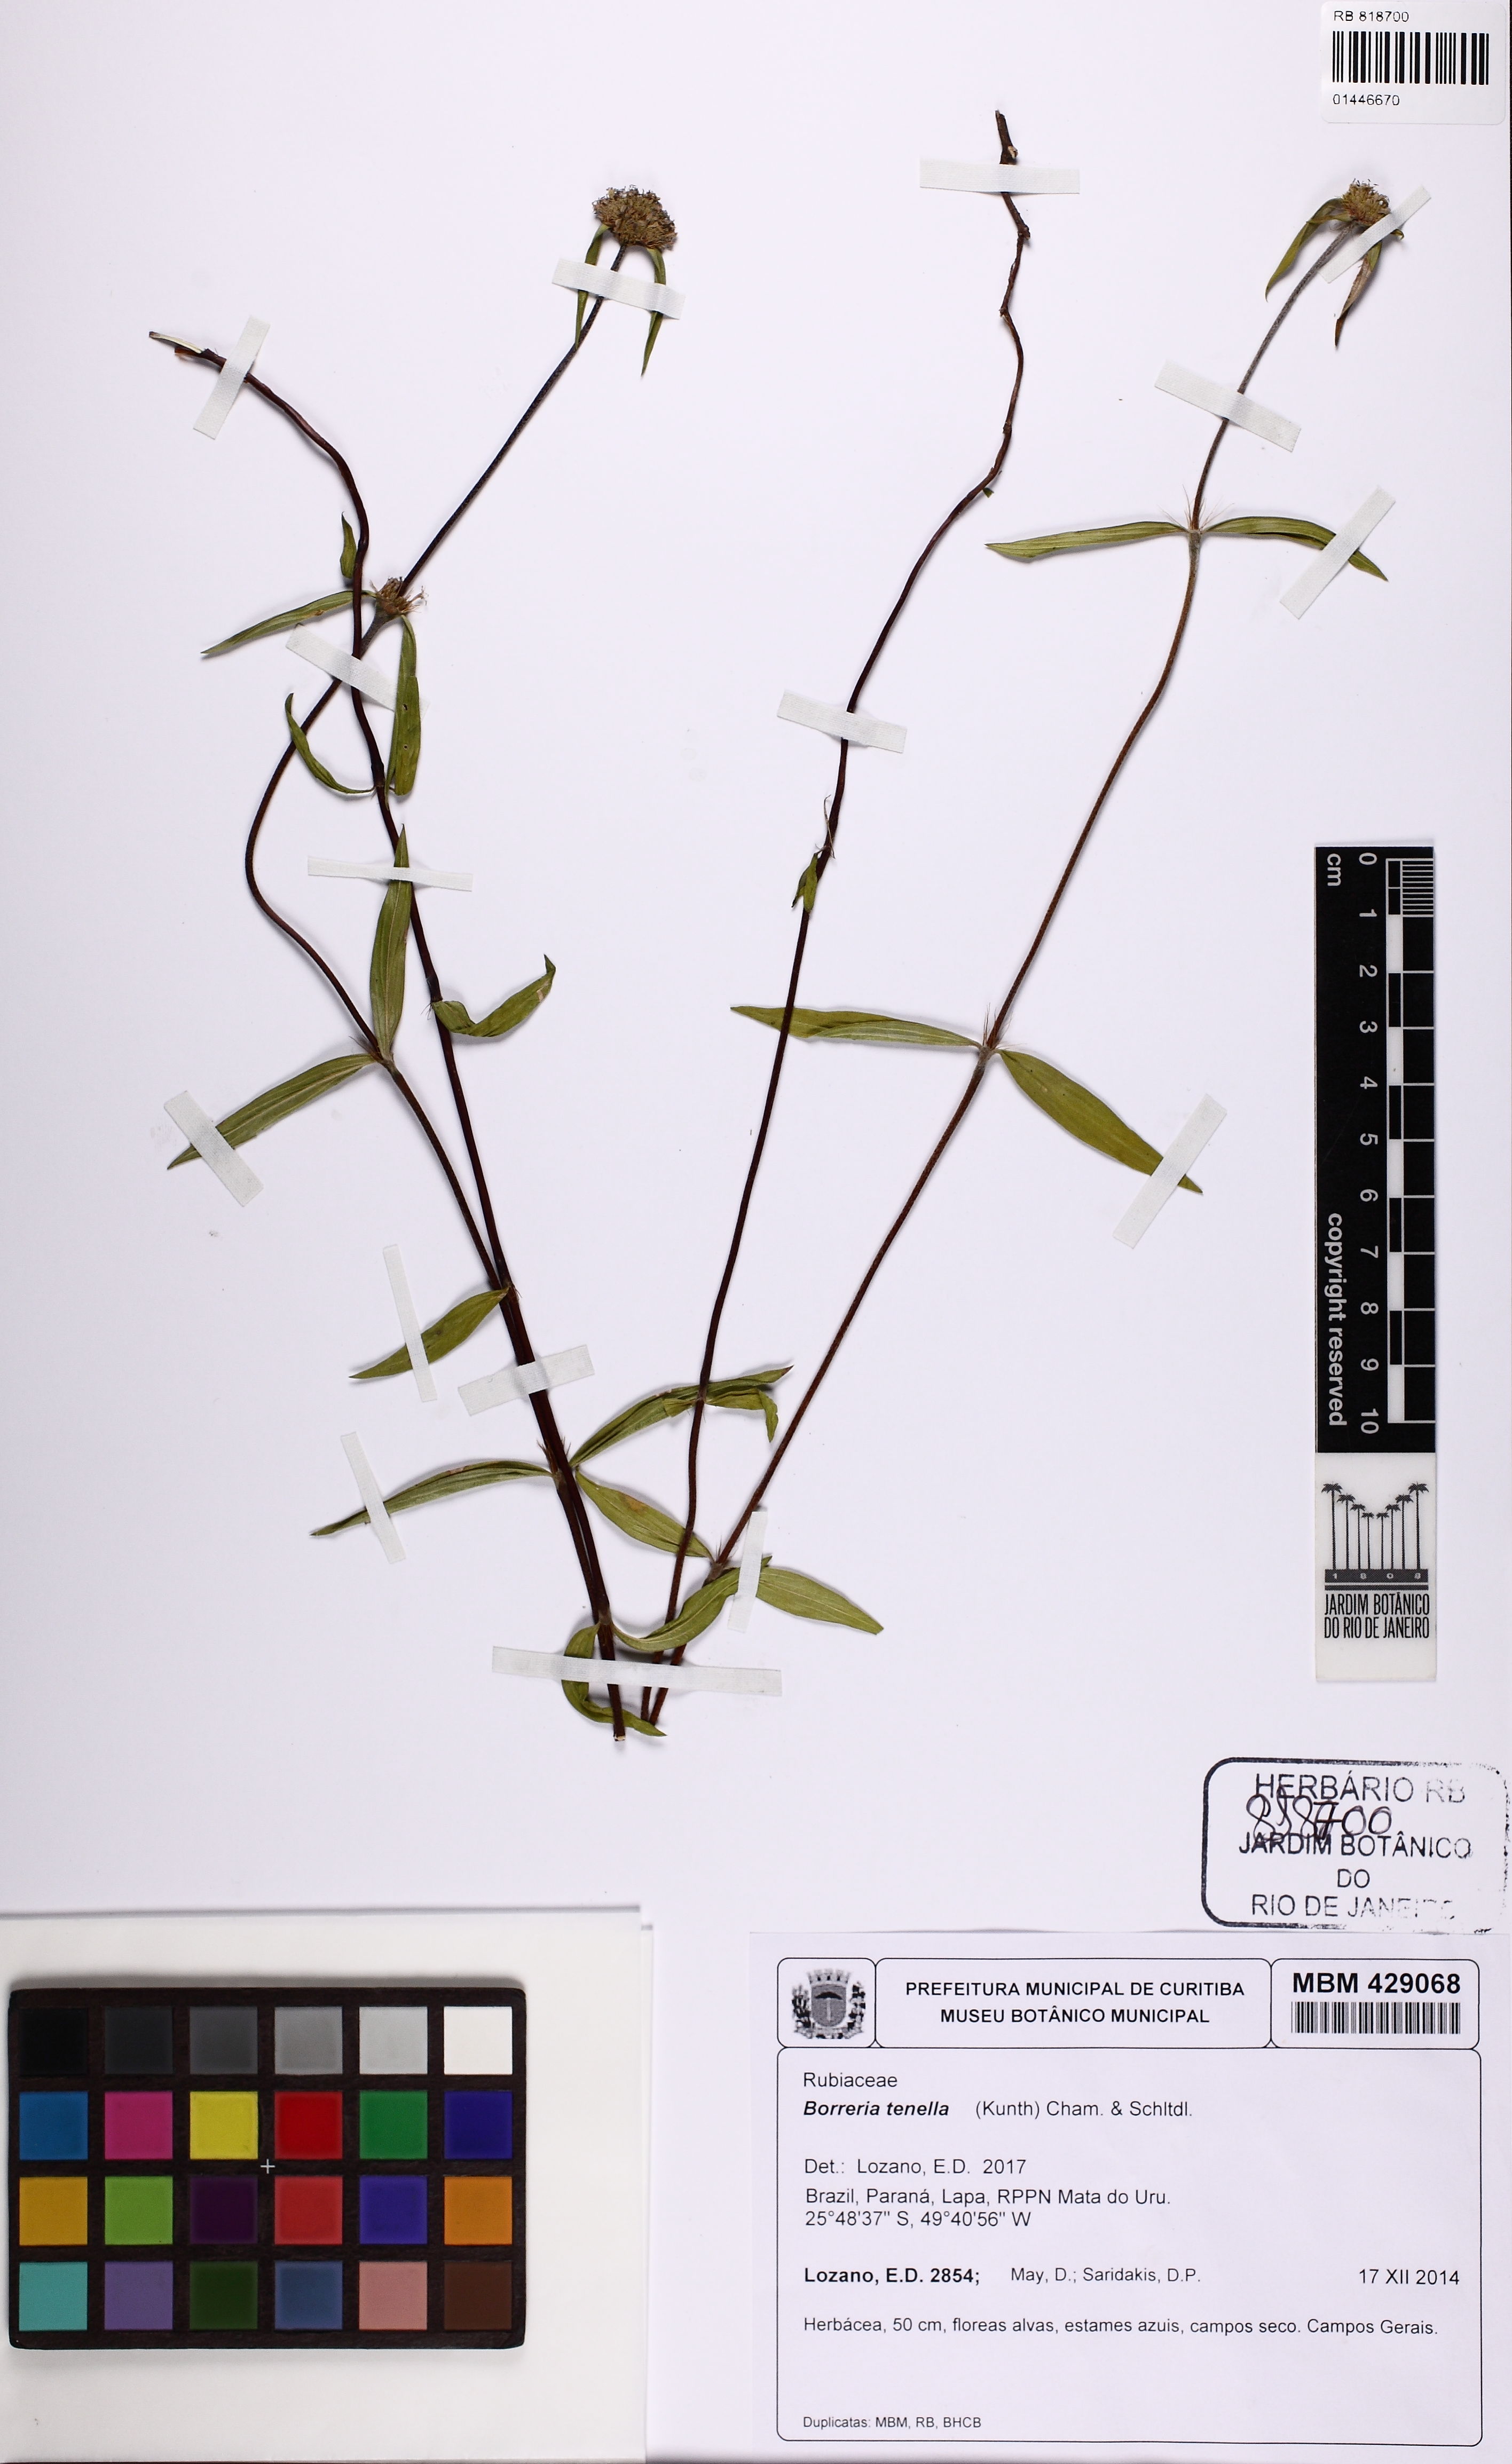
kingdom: Plantae
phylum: Tracheophyta
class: Magnoliopsida
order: Gentianales
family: Rubiaceae
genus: Spermacoce
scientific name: Spermacoce orinocensis
